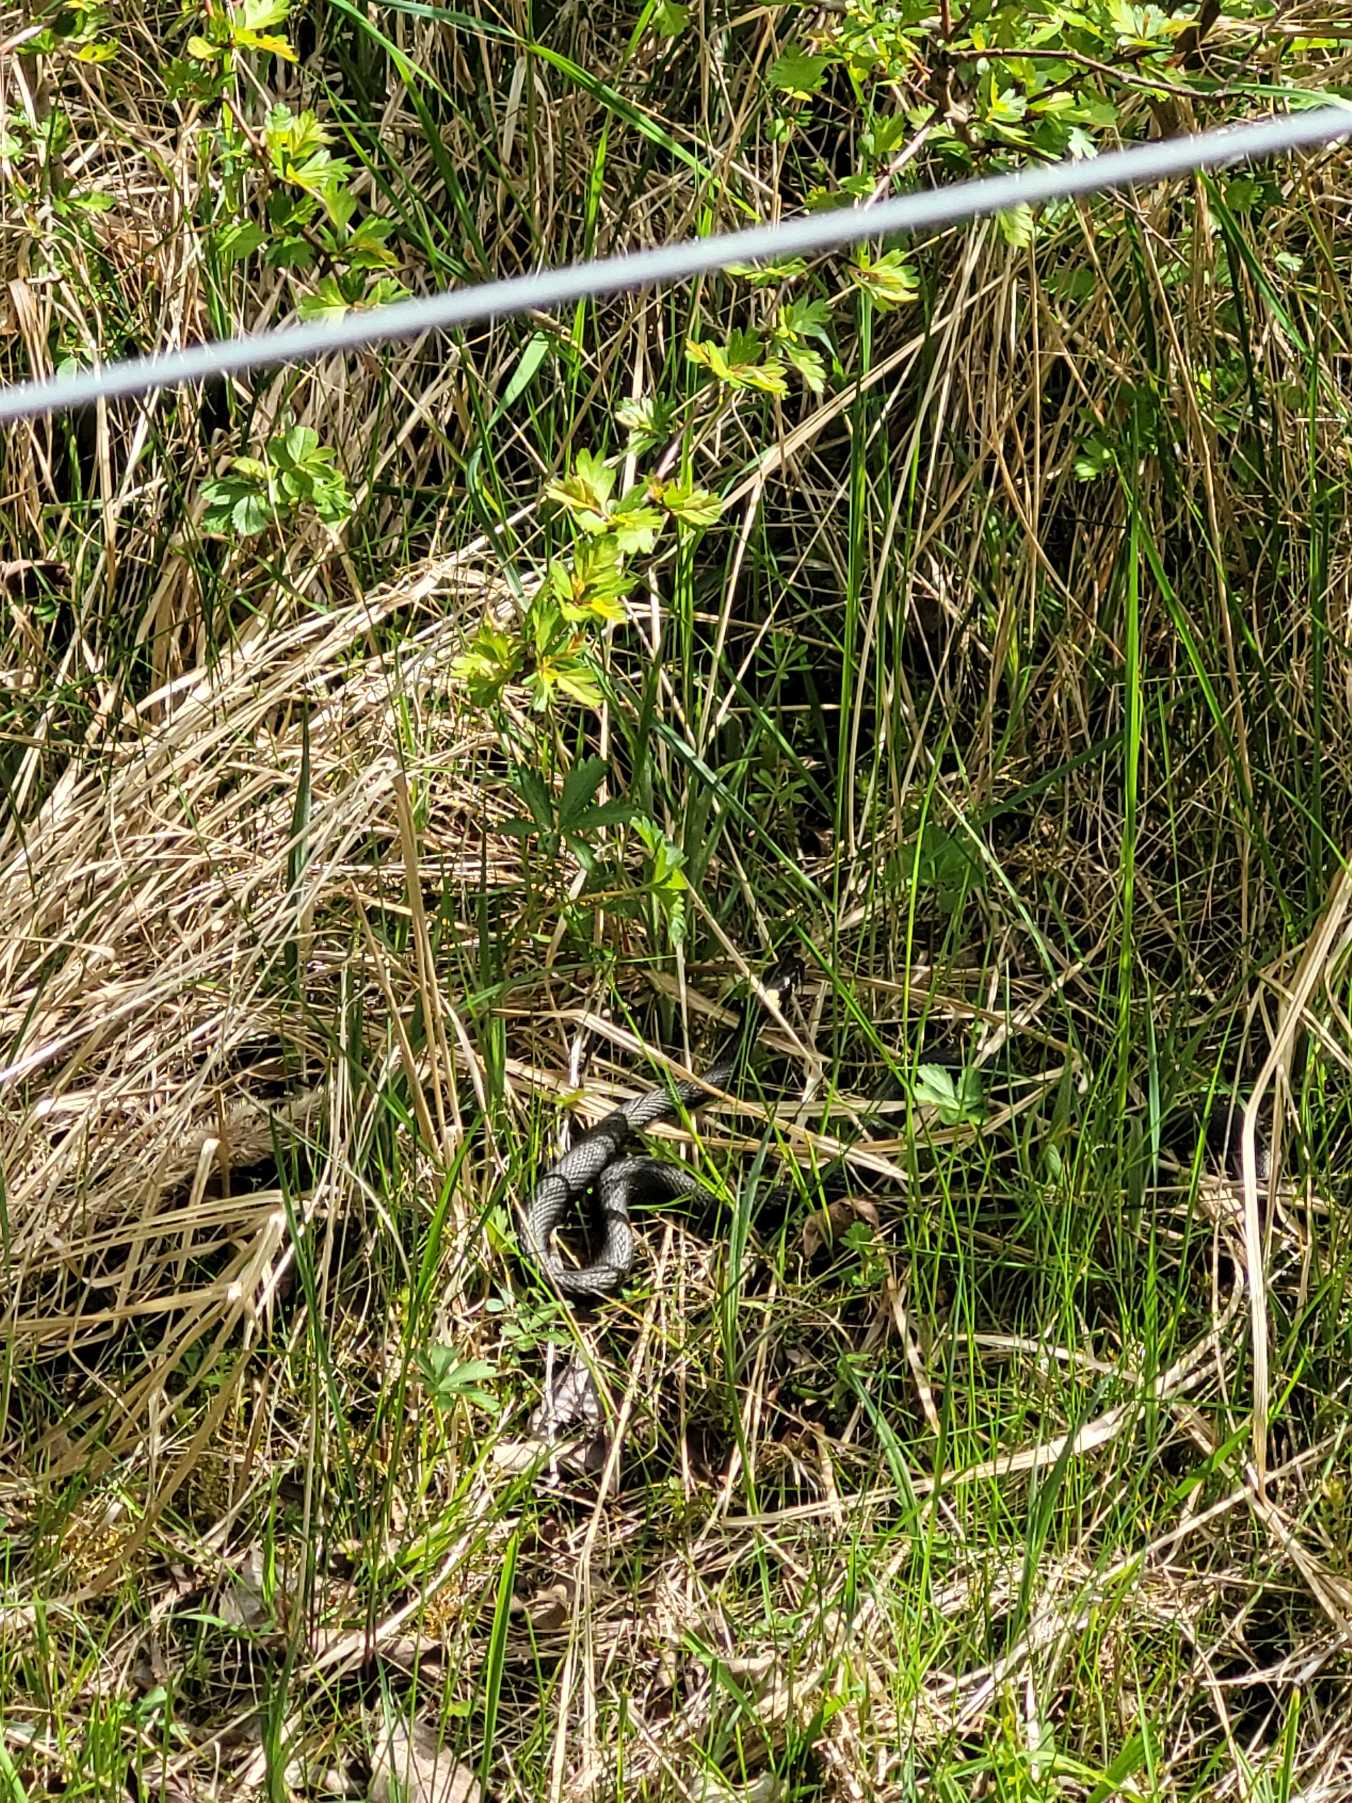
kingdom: Animalia
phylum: Chordata
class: Squamata
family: Colubridae
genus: Natrix
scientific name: Natrix natrix
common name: Snog
